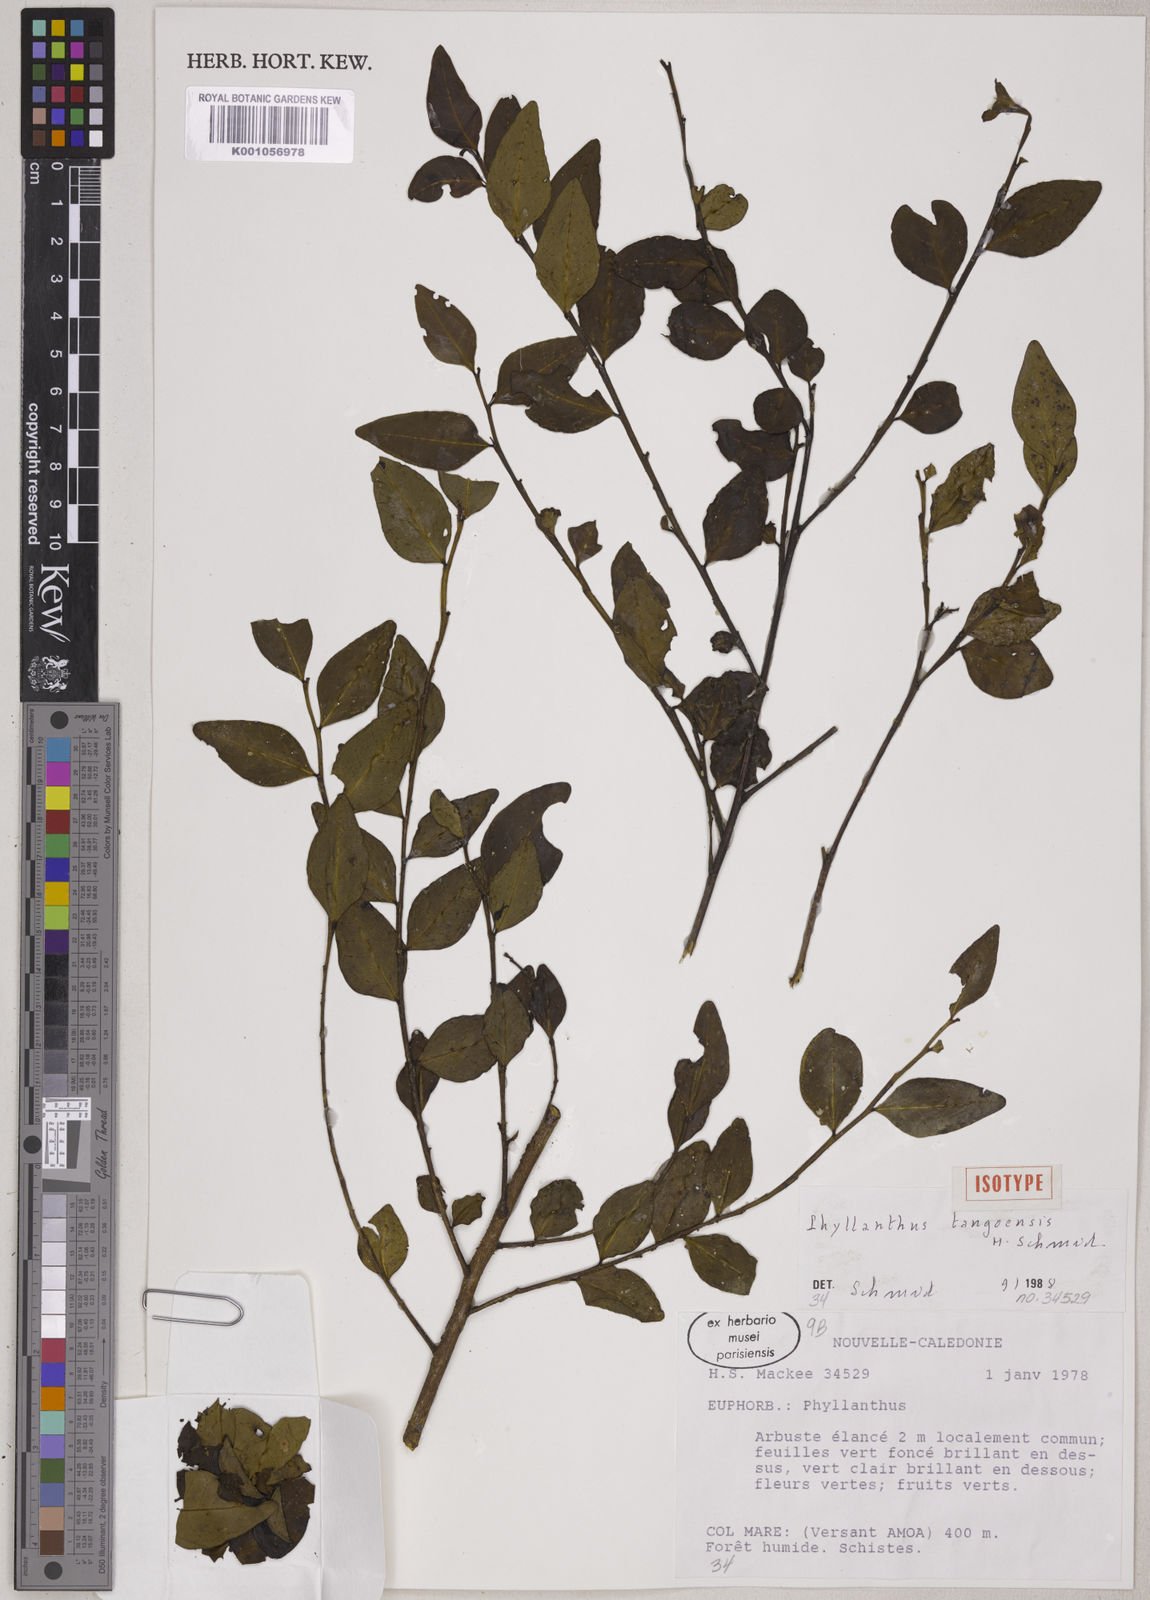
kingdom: Plantae
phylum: Tracheophyta
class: Magnoliopsida
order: Malpighiales
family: Phyllanthaceae
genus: Phyllanthus
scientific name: Phyllanthus tangoensis
